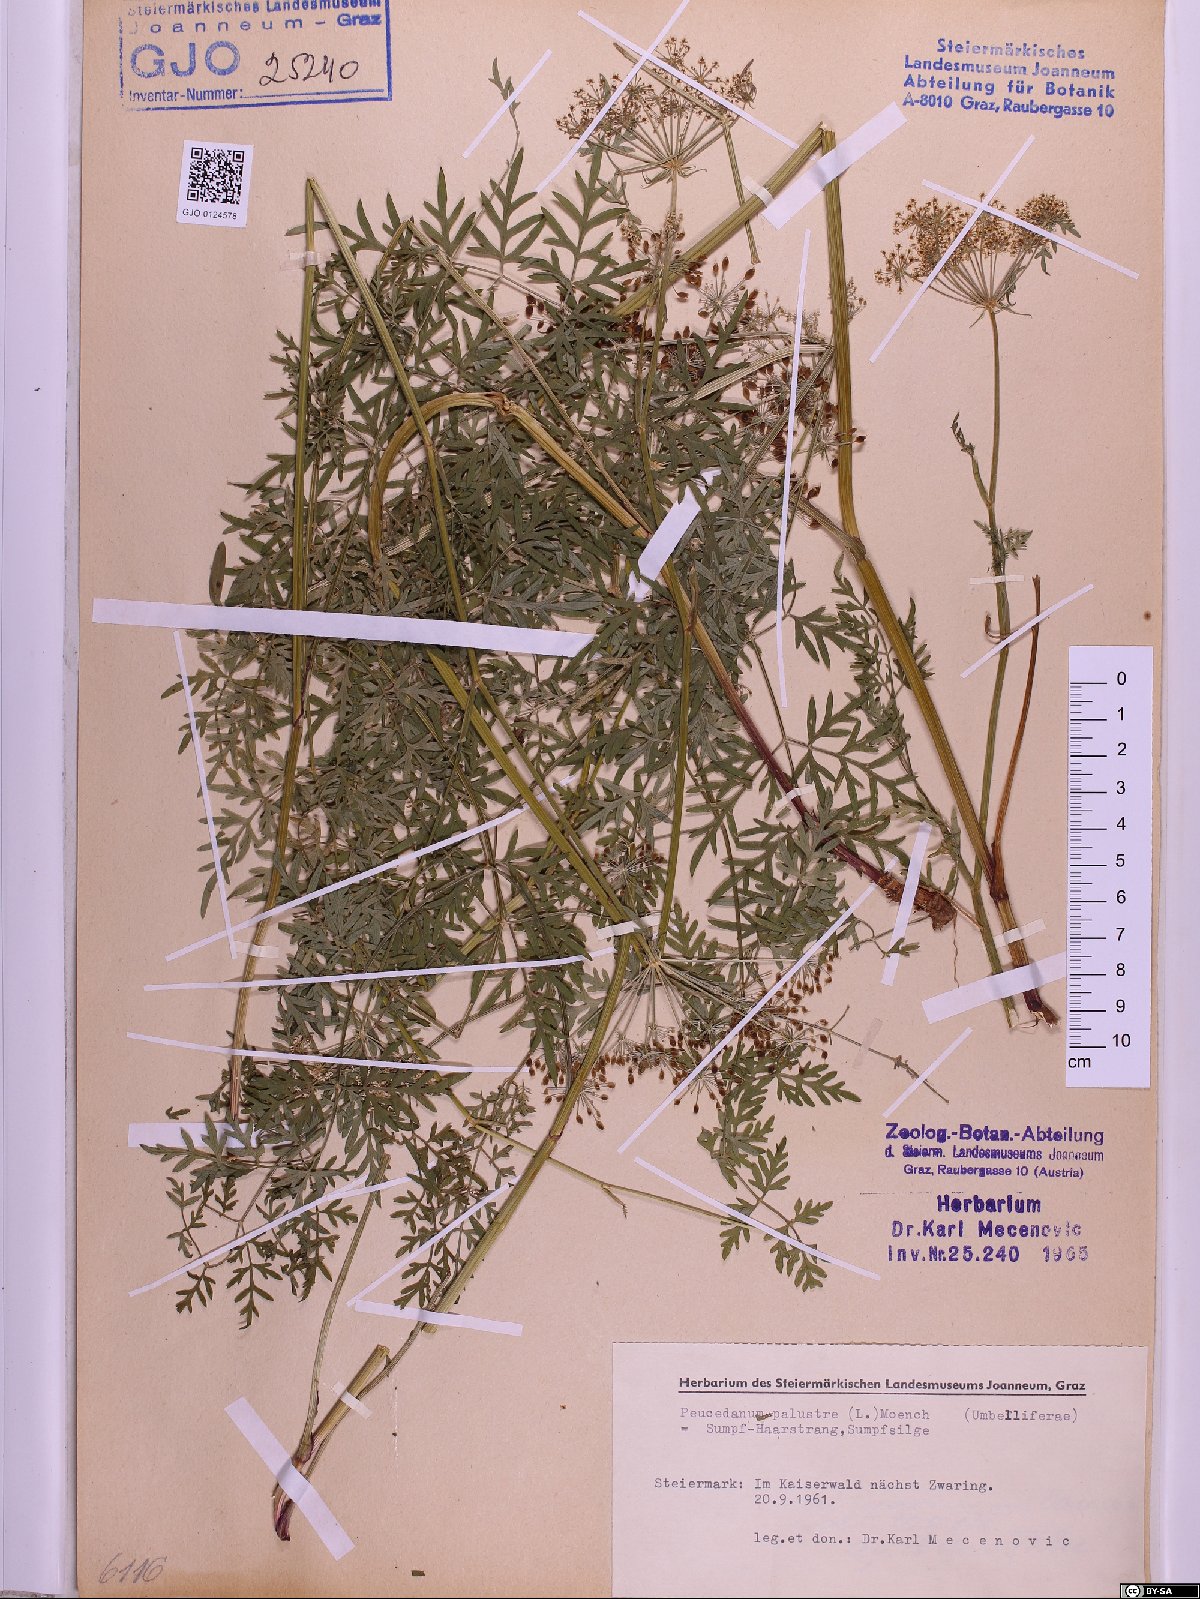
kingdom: Plantae
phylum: Tracheophyta
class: Magnoliopsida
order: Apiales
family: Apiaceae
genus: Thysselinum
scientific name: Thysselinum palustre
